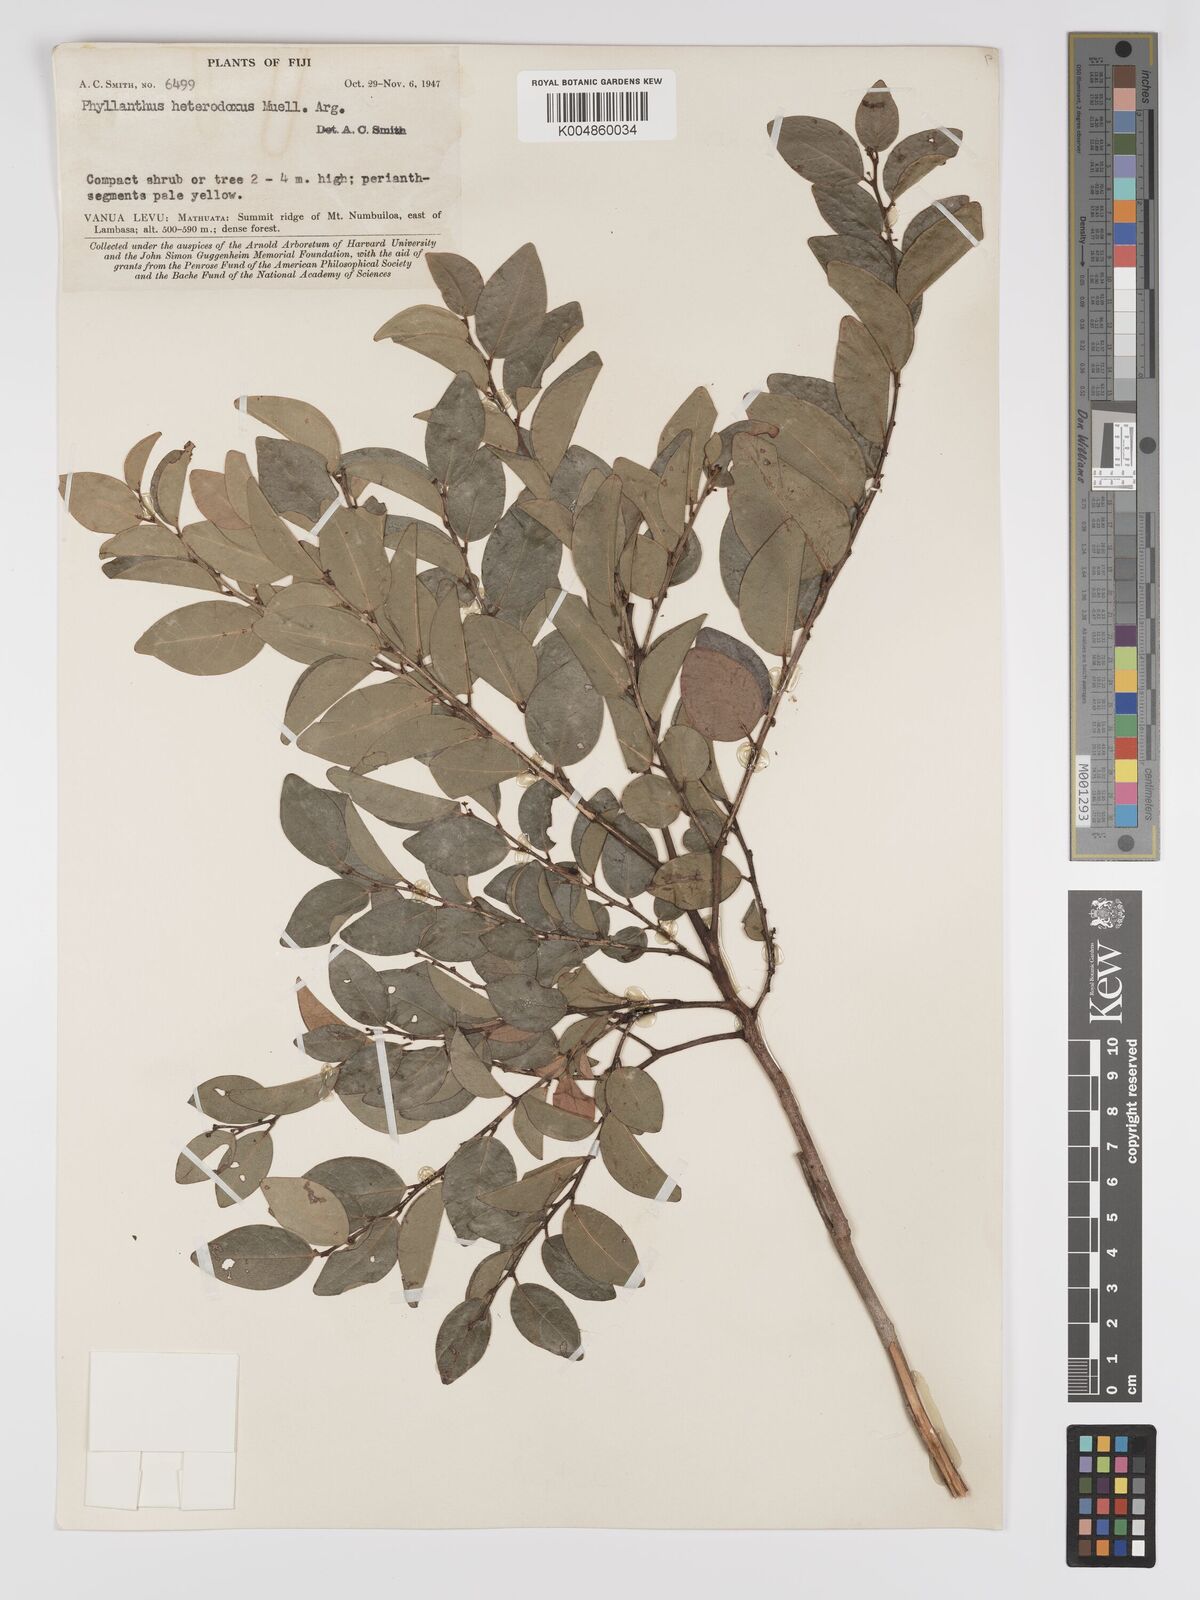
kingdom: Plantae
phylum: Tracheophyta
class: Magnoliopsida
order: Malpighiales
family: Phyllanthaceae
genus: Glochidion
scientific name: Glochidion heterodoxum
